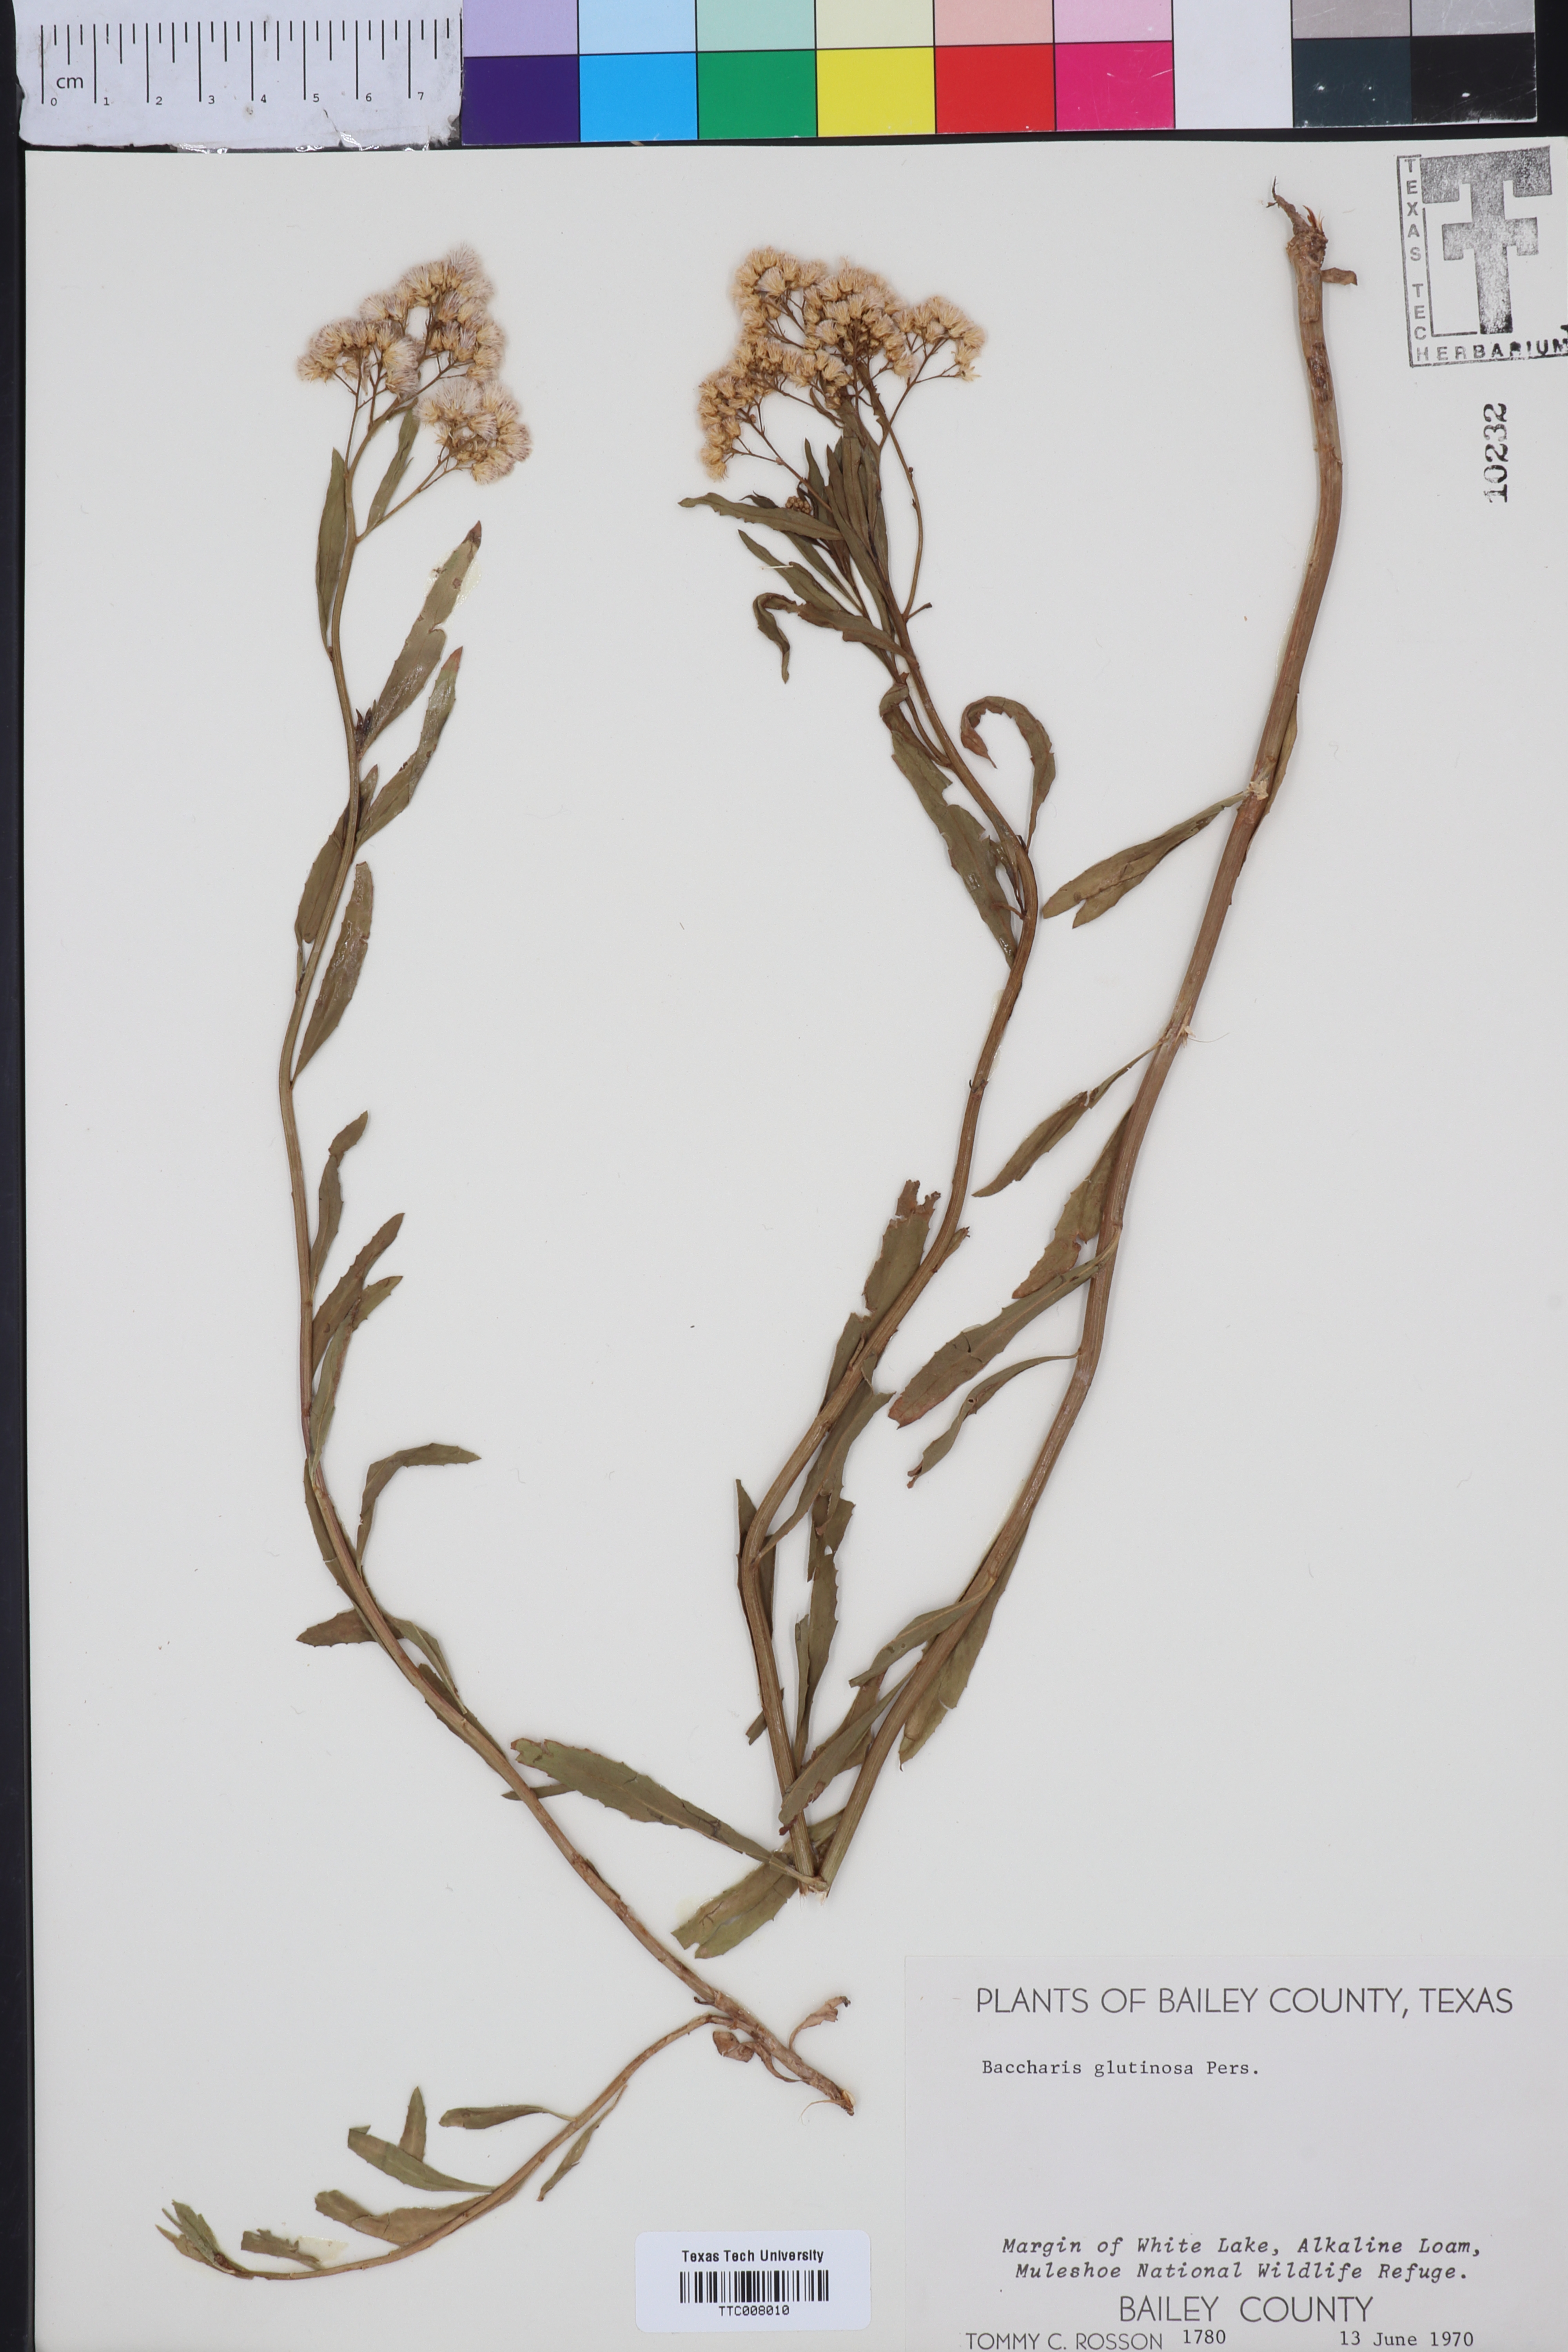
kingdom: Plantae
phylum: Tracheophyta
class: Magnoliopsida
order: Asterales
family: Asteraceae
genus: Baccharis
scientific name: Baccharis glutinosa
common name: Saltmarsh baccharis
